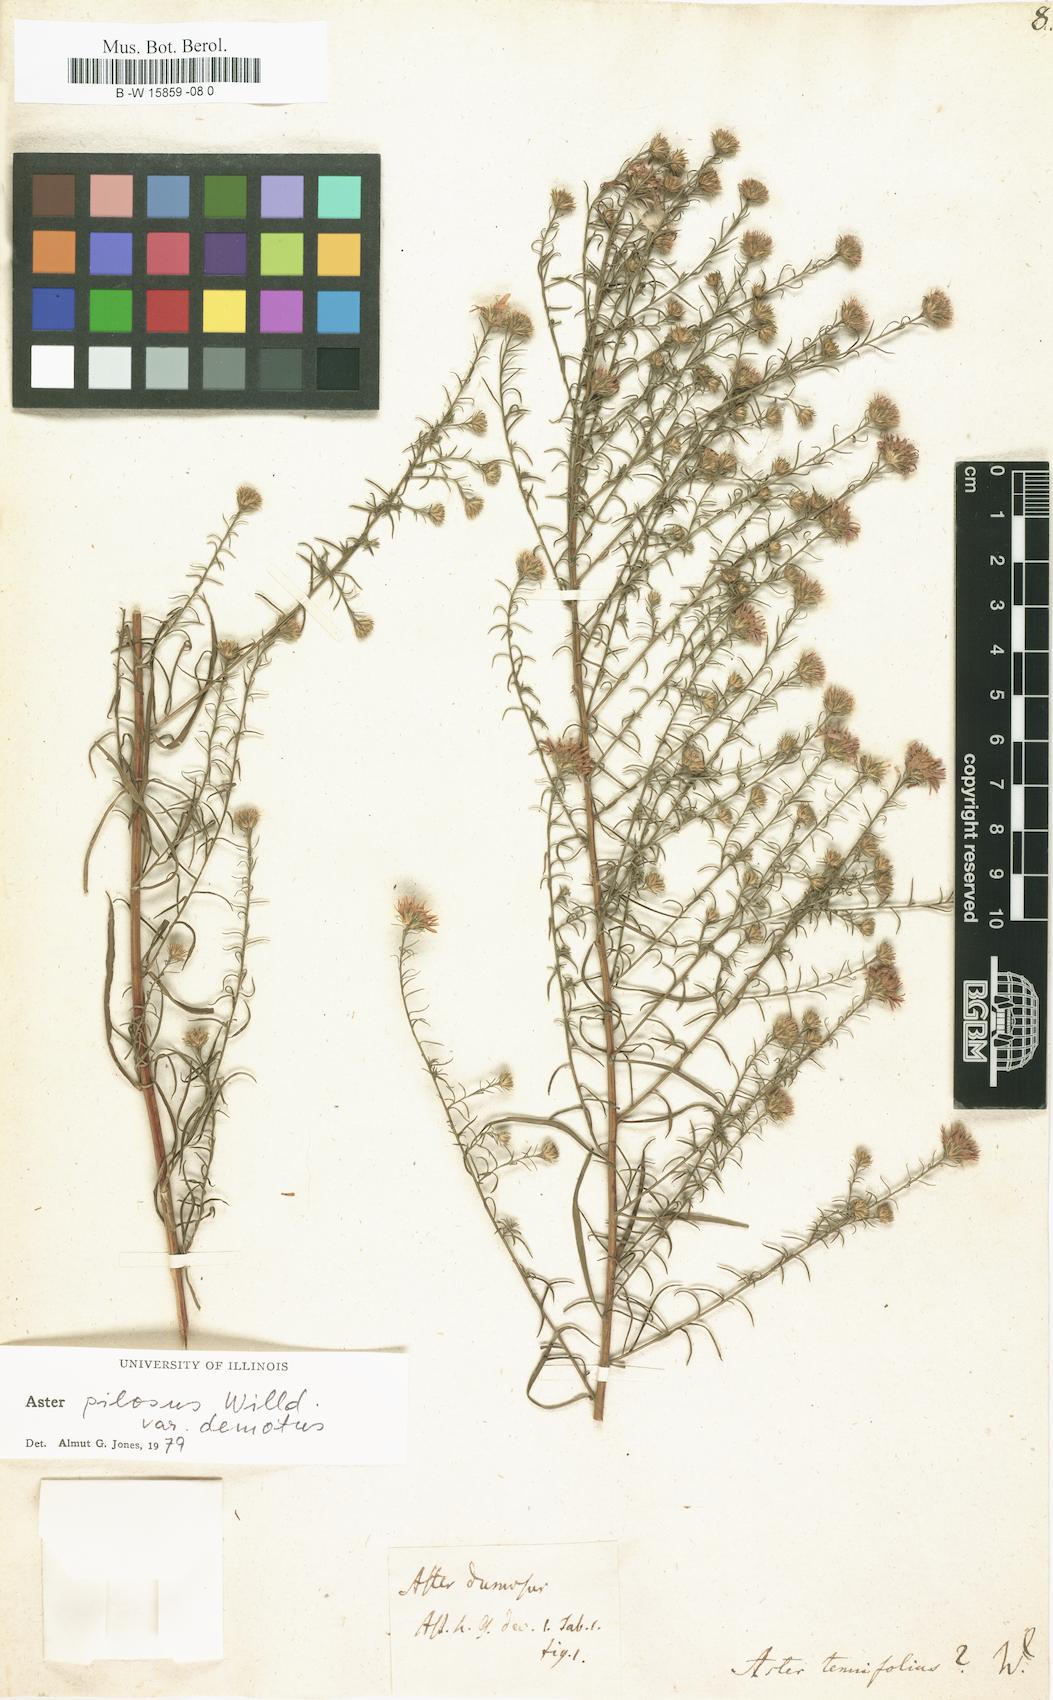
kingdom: Plantae
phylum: Tracheophyta
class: Magnoliopsida
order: Asterales
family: Asteraceae
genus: Symphyotrichum
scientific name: Symphyotrichum tenuifolium
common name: Perennial salt-marsh aster
